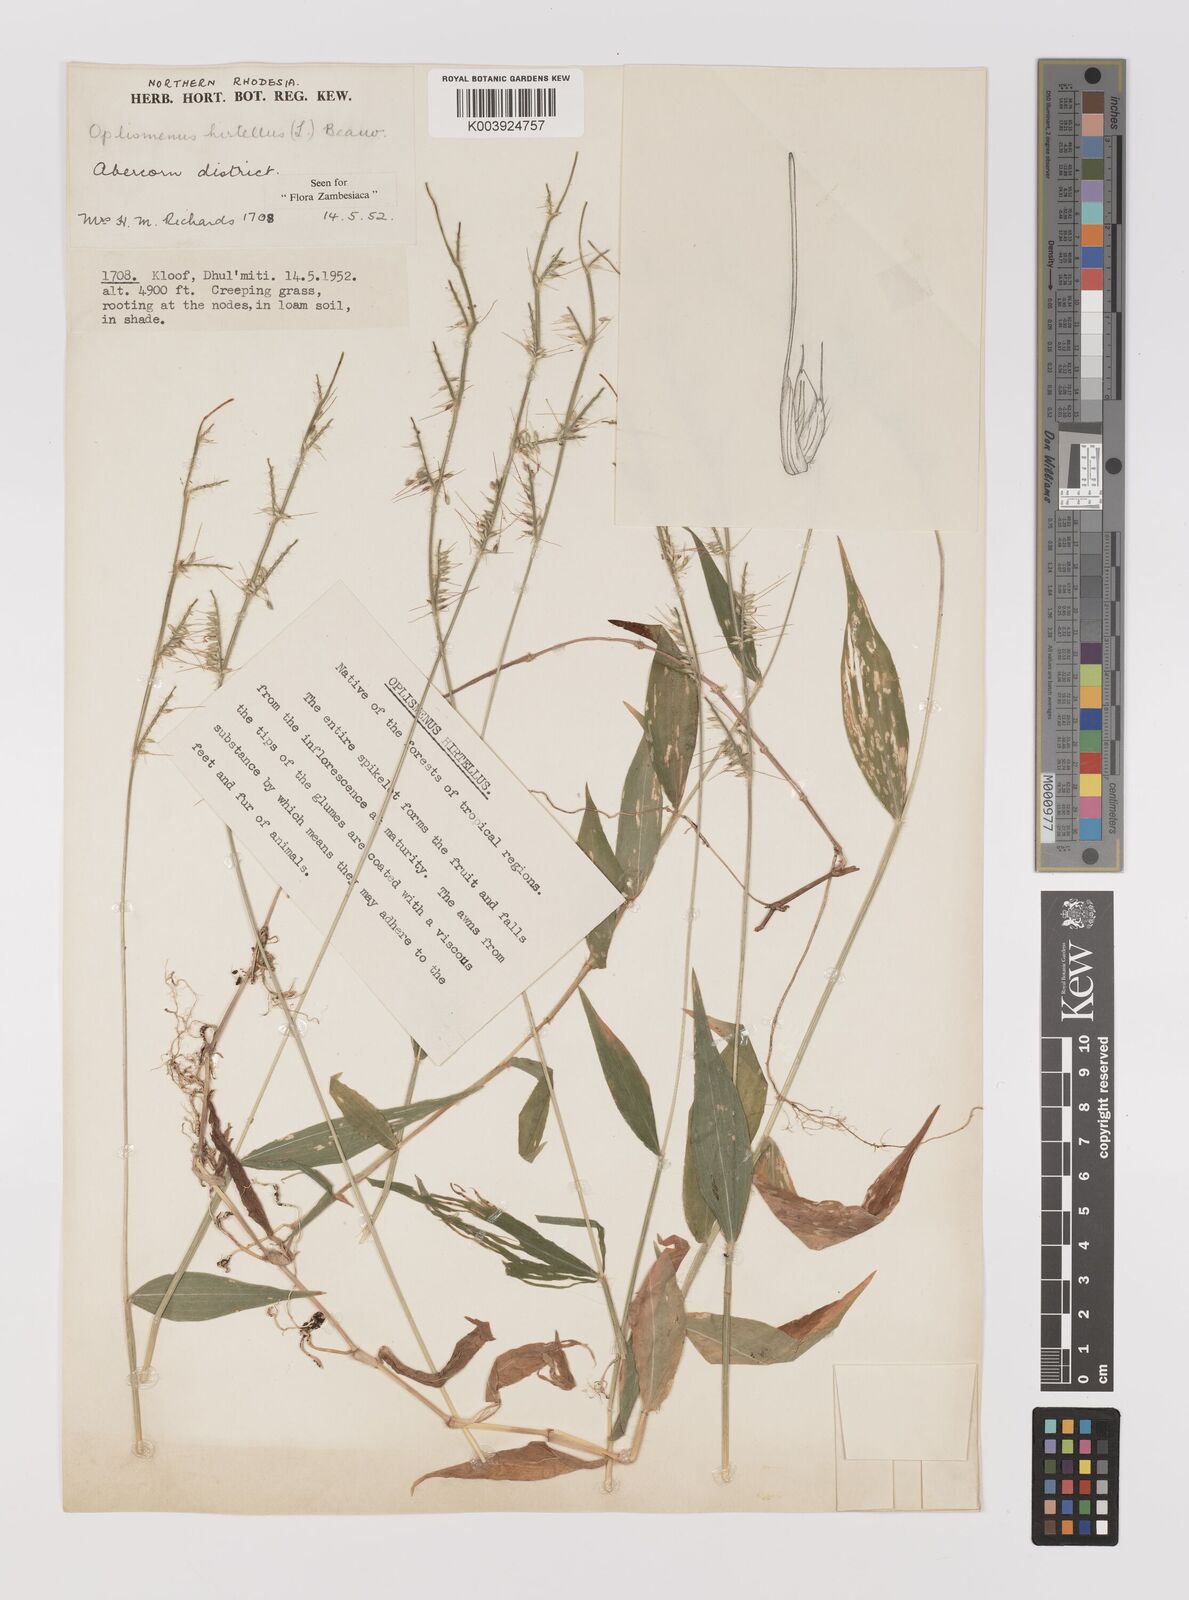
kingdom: Plantae
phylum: Tracheophyta
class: Liliopsida
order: Poales
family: Poaceae
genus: Oplismenus
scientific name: Oplismenus hirtellus
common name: Basketgrass
